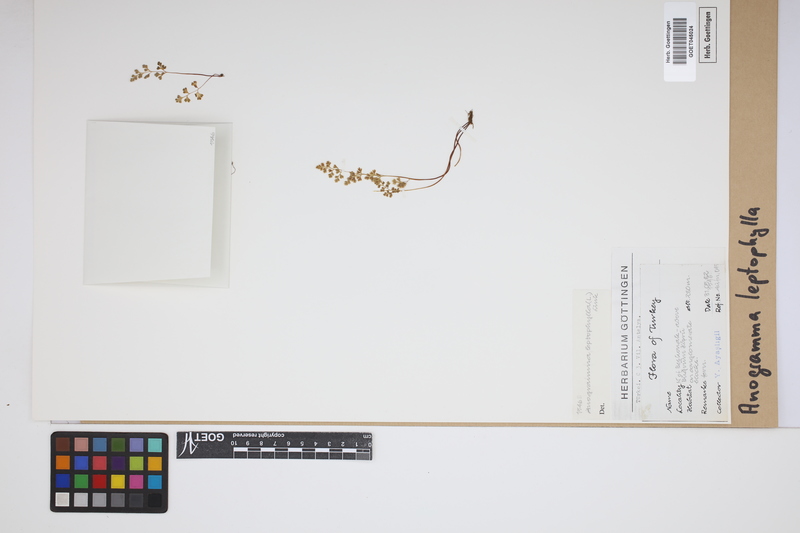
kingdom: Plantae
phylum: Tracheophyta
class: Polypodiopsida
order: Polypodiales
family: Pteridaceae
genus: Anogramma
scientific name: Anogramma leptophylla
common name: Jersey fern
